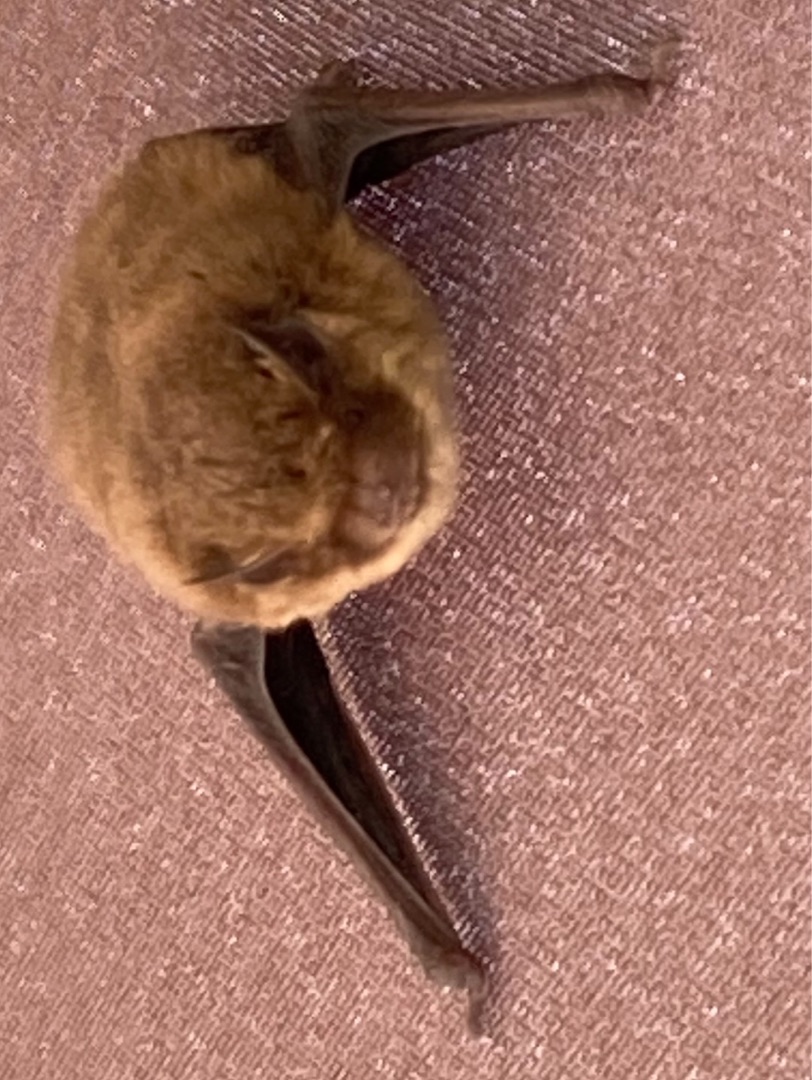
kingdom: Animalia
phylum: Chordata
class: Mammalia
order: Chiroptera
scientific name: Chiroptera
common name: Flagermus
